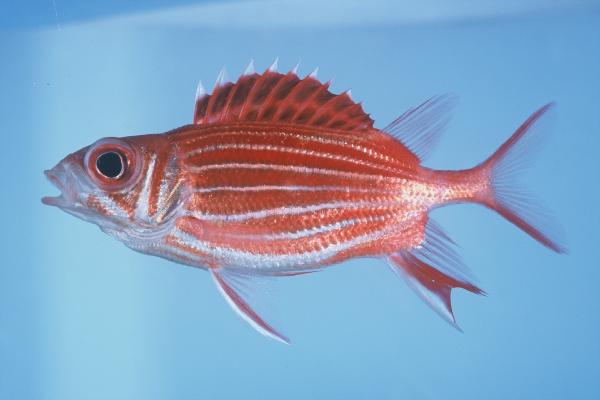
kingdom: Animalia
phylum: Chordata
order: Beryciformes
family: Holocentridae
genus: Sargocentron
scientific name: Sargocentron diadema
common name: Crown squirrelfish
